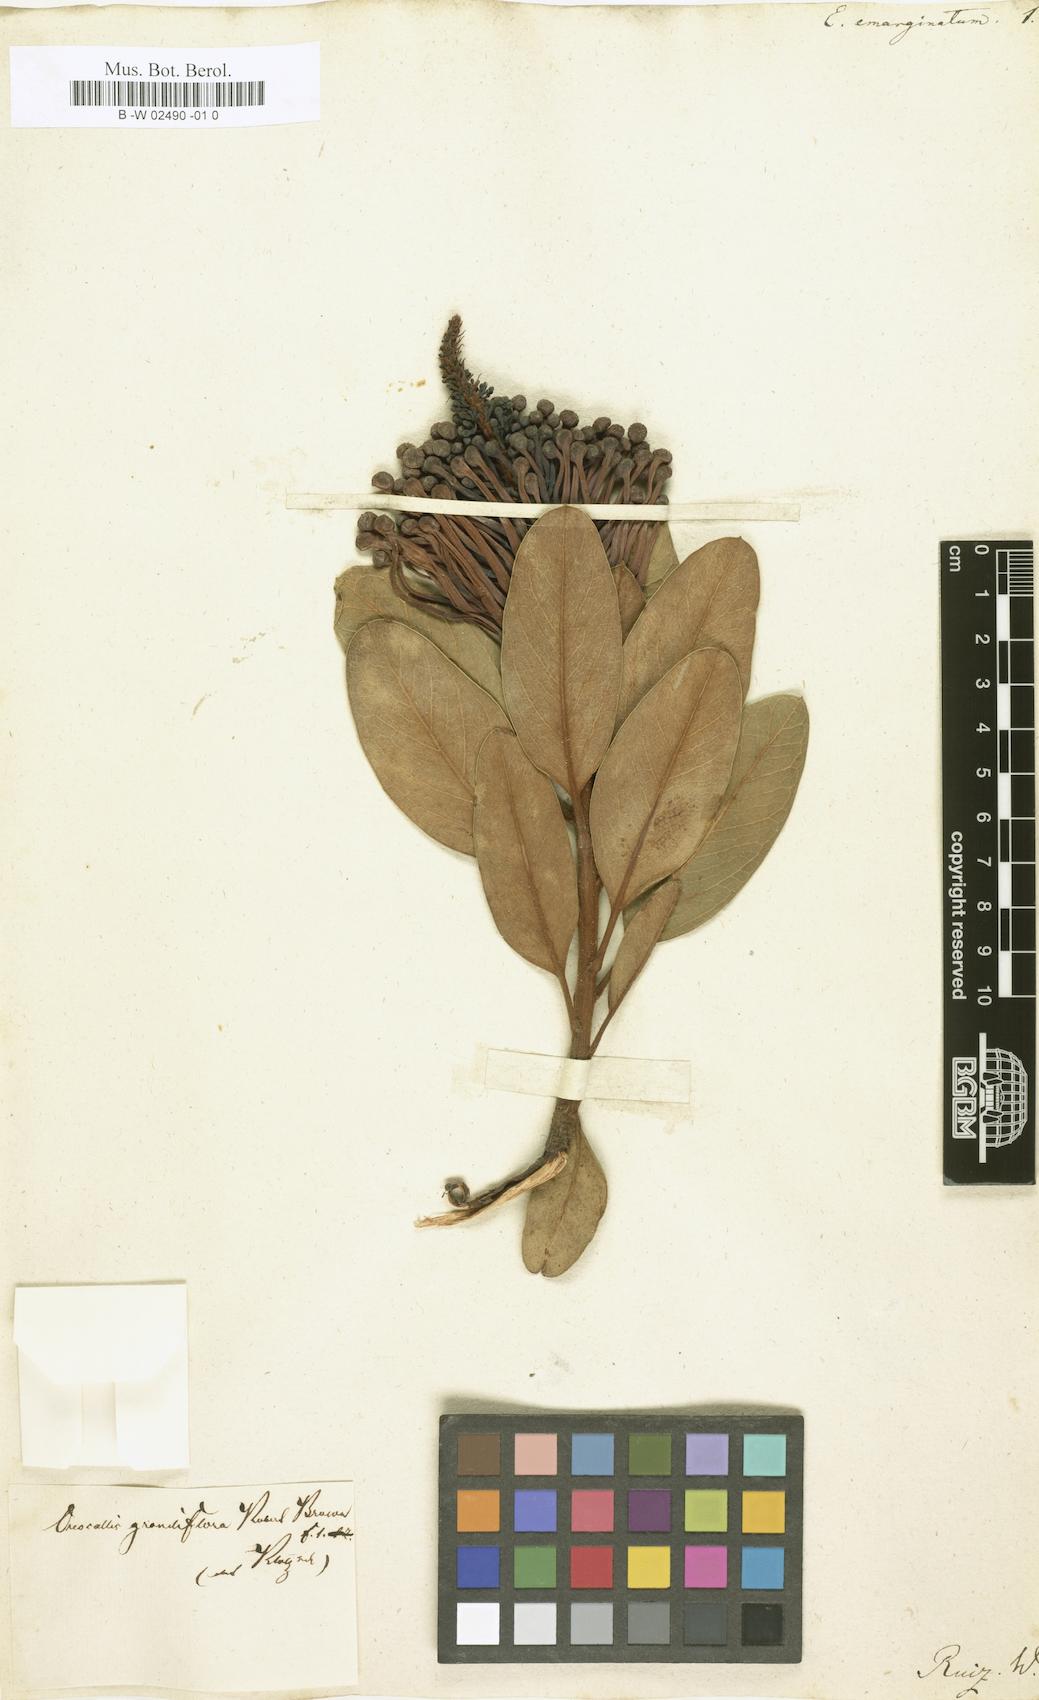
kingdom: Plantae
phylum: Tracheophyta
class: Magnoliopsida
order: Proteales
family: Proteaceae
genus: Oreocallis
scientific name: Oreocallis grandiflora
